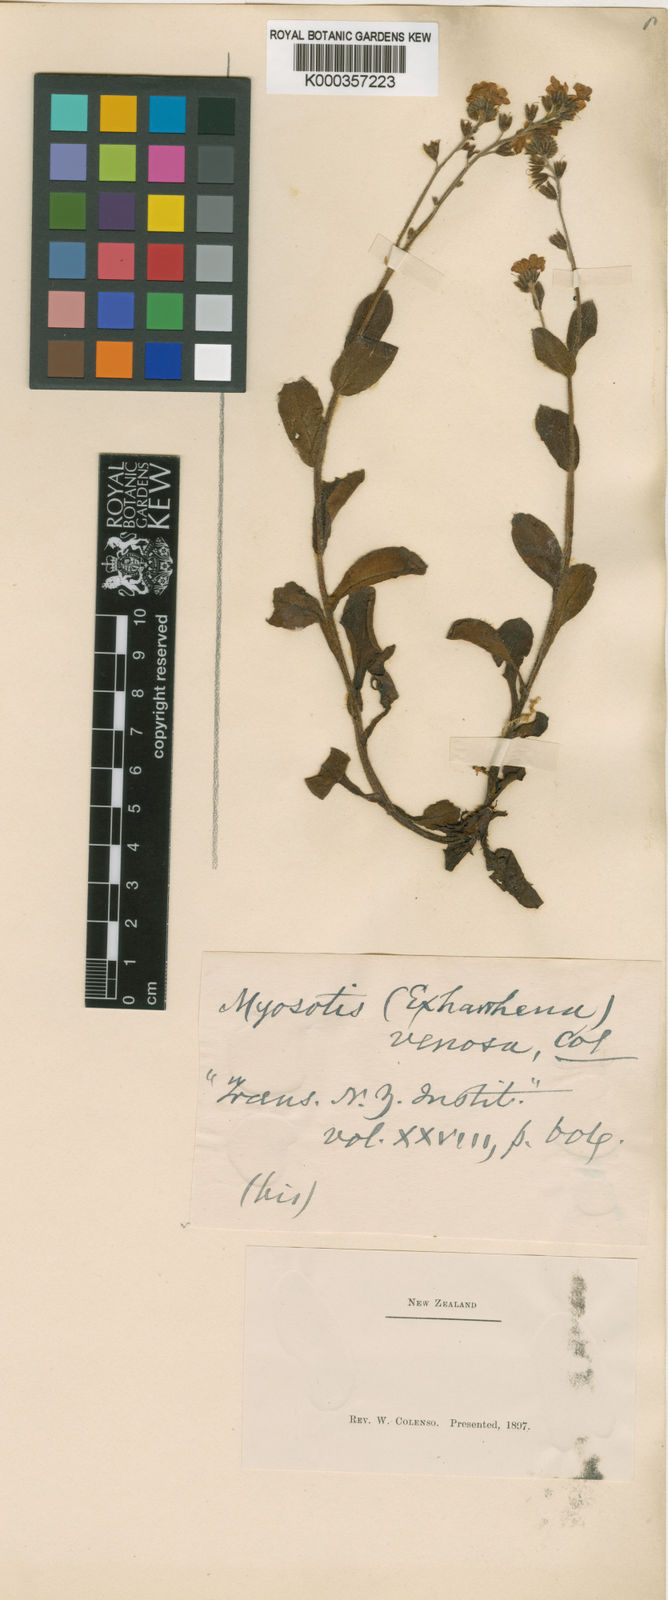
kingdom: Plantae
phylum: Tracheophyta
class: Magnoliopsida
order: Boraginales
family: Boraginaceae
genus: Myosotis
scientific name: Myosotis forsteri
